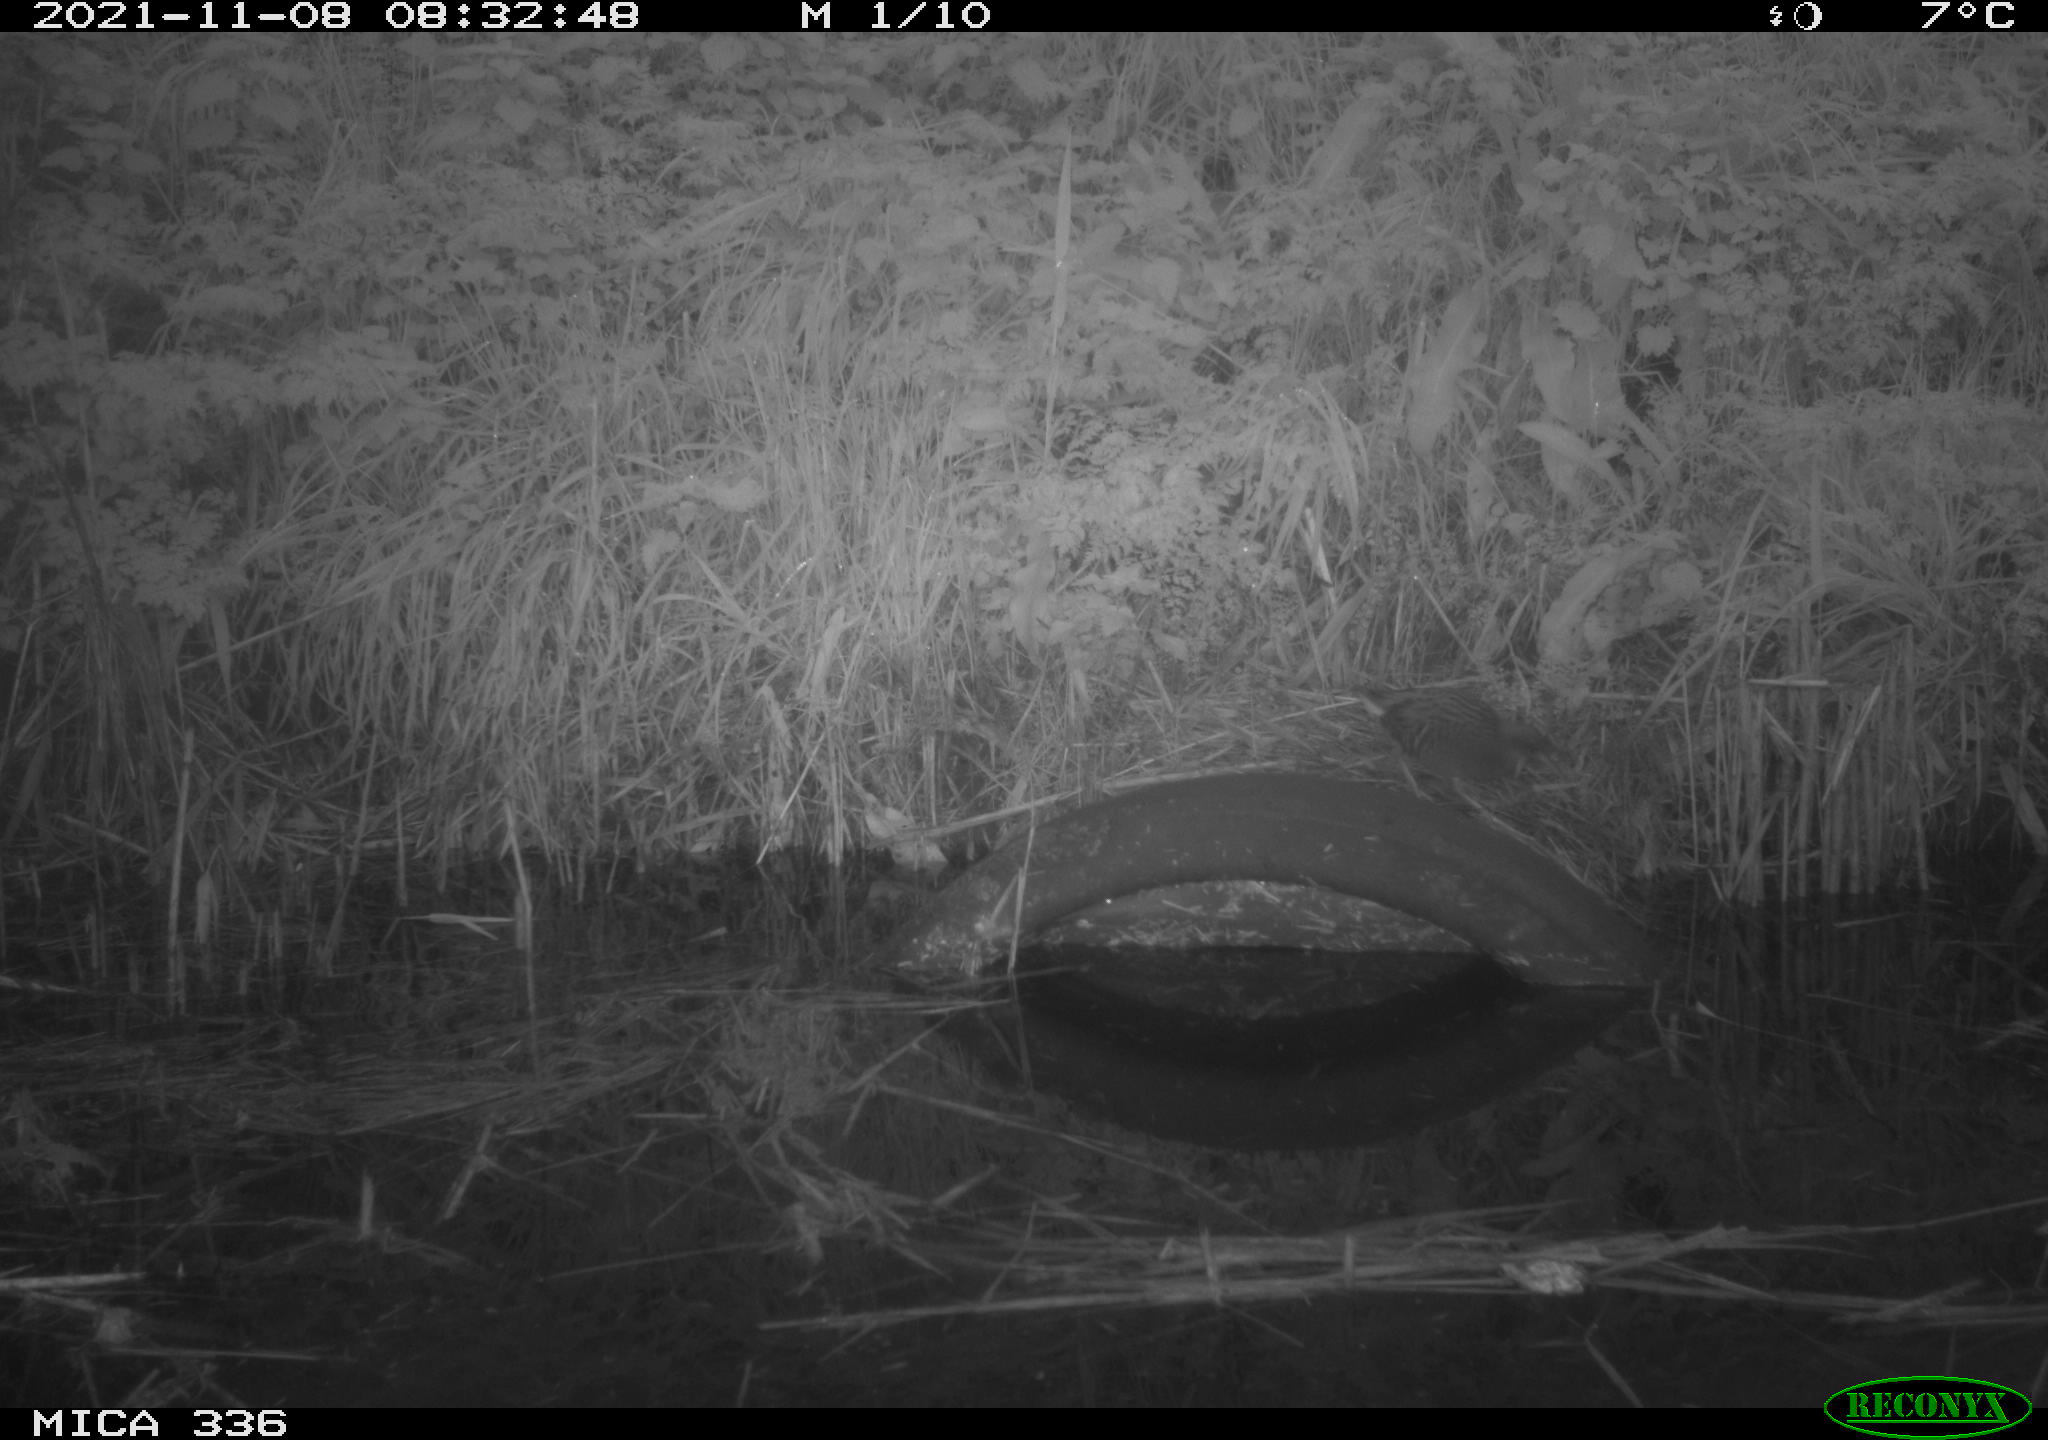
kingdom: Animalia
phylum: Chordata
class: Aves
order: Gruiformes
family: Rallidae
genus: Gallinula
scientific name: Gallinula chloropus
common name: Common moorhen
